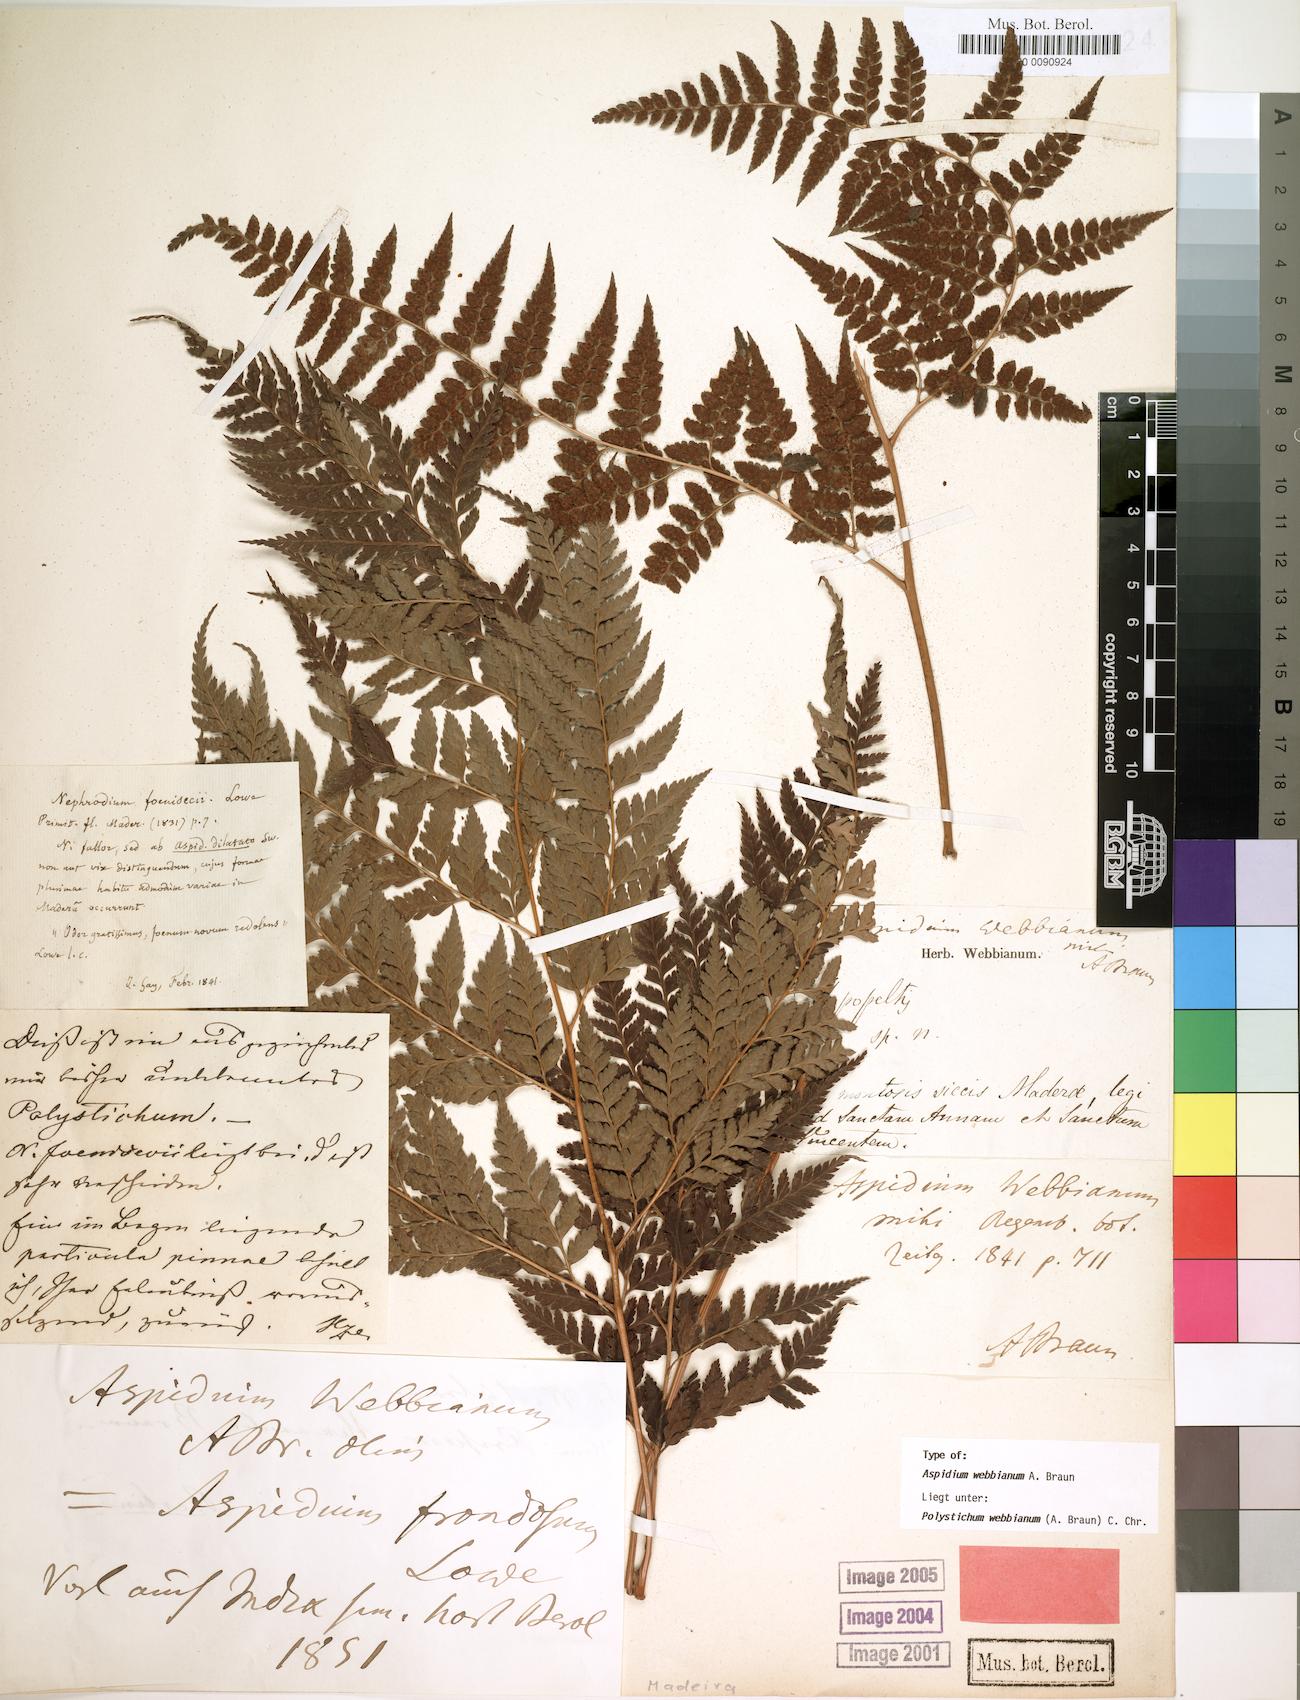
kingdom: Plantae
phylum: Tracheophyta
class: Polypodiopsida
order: Polypodiales
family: Dryopteridaceae
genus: Arachniodes
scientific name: Arachniodes webbiana
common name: Madeira holly fern
